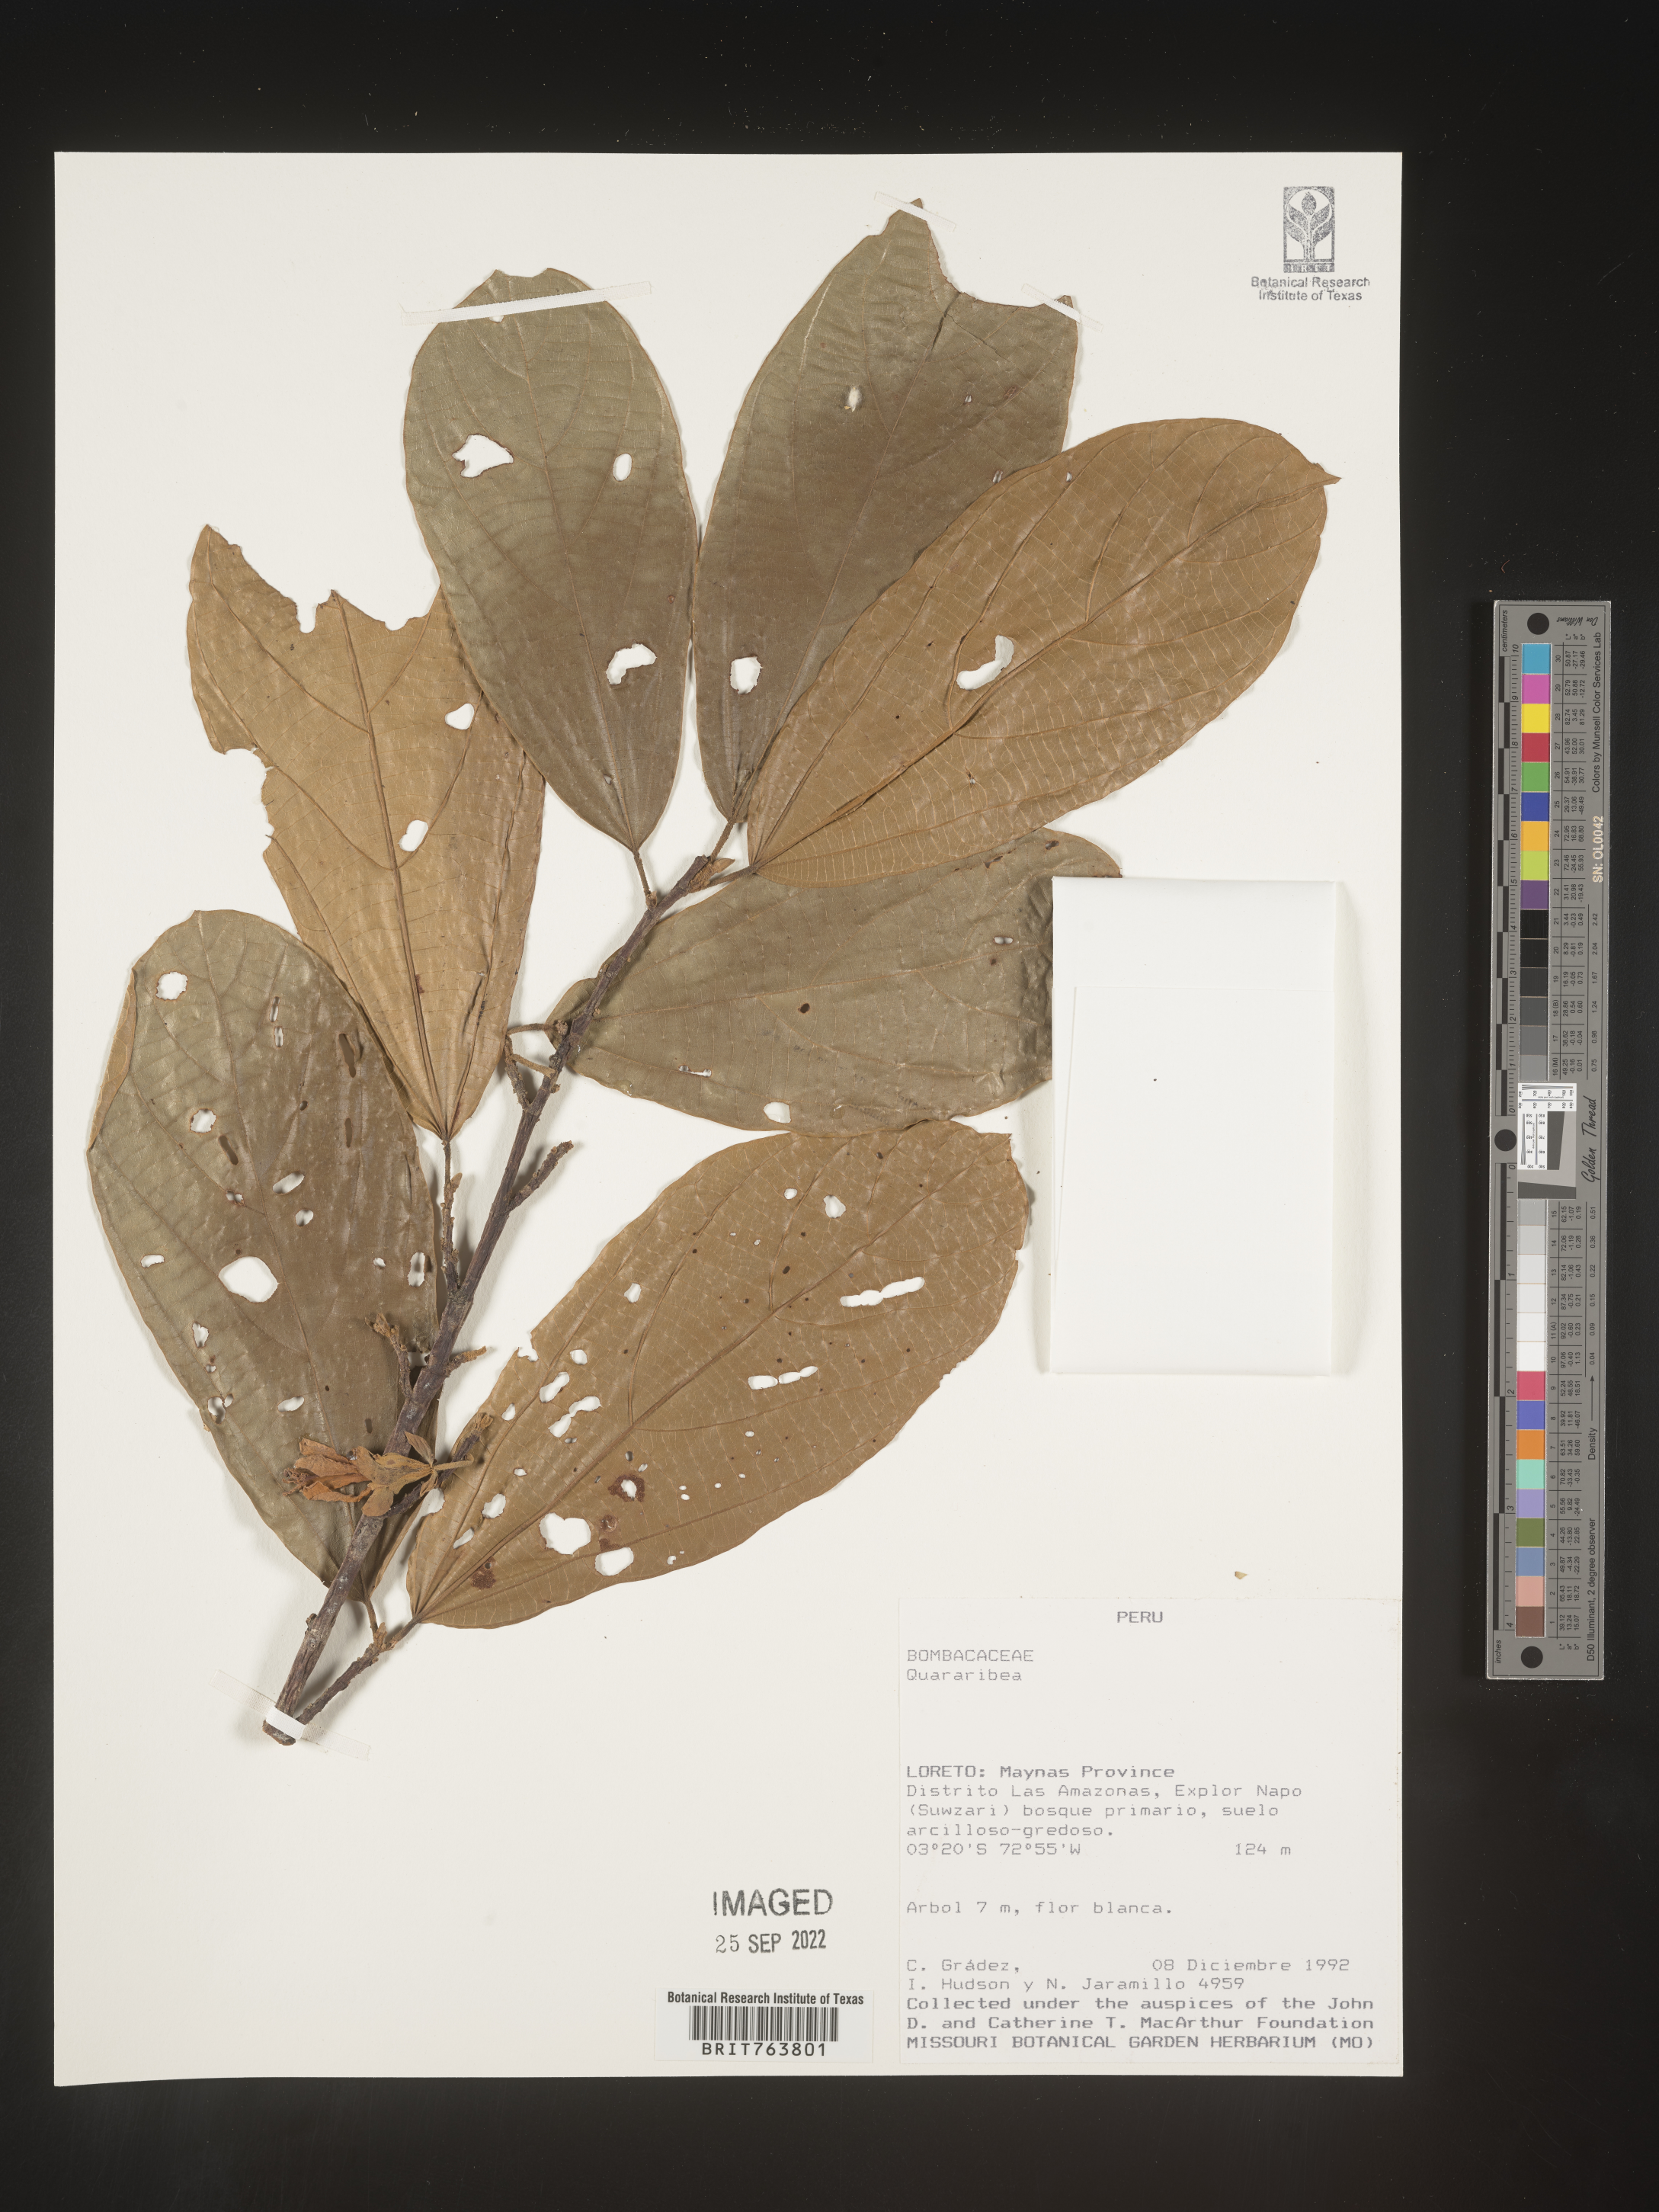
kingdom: Plantae
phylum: Tracheophyta
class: Magnoliopsida
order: Malvales
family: Malvaceae
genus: Quararibea
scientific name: Quararibea
